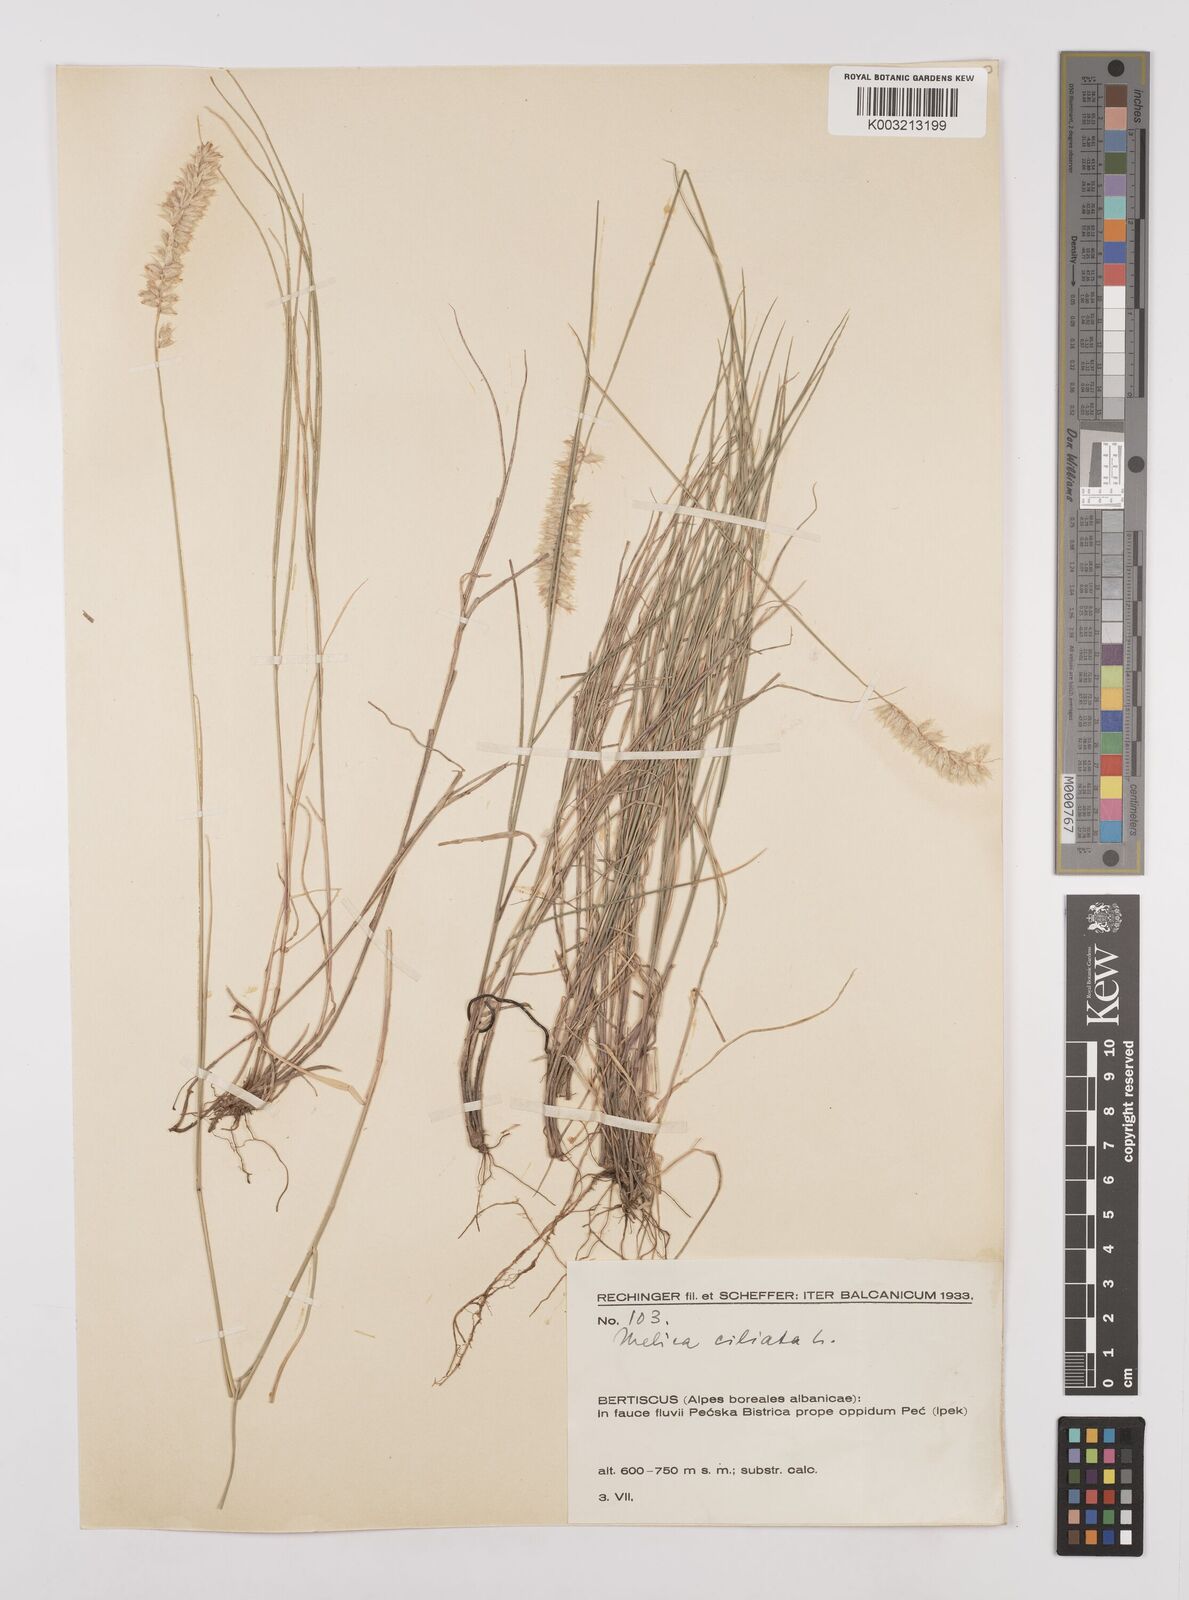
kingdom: Plantae
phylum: Tracheophyta
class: Liliopsida
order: Poales
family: Poaceae
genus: Melica
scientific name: Melica ciliata
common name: Hairy melicgrass
